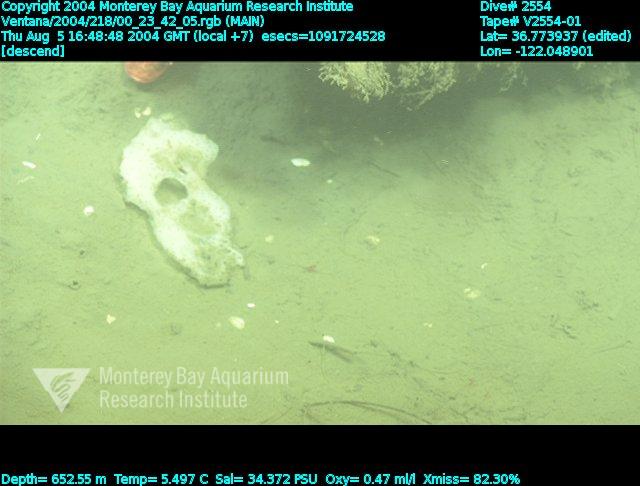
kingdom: Animalia
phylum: Porifera
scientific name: Porifera
